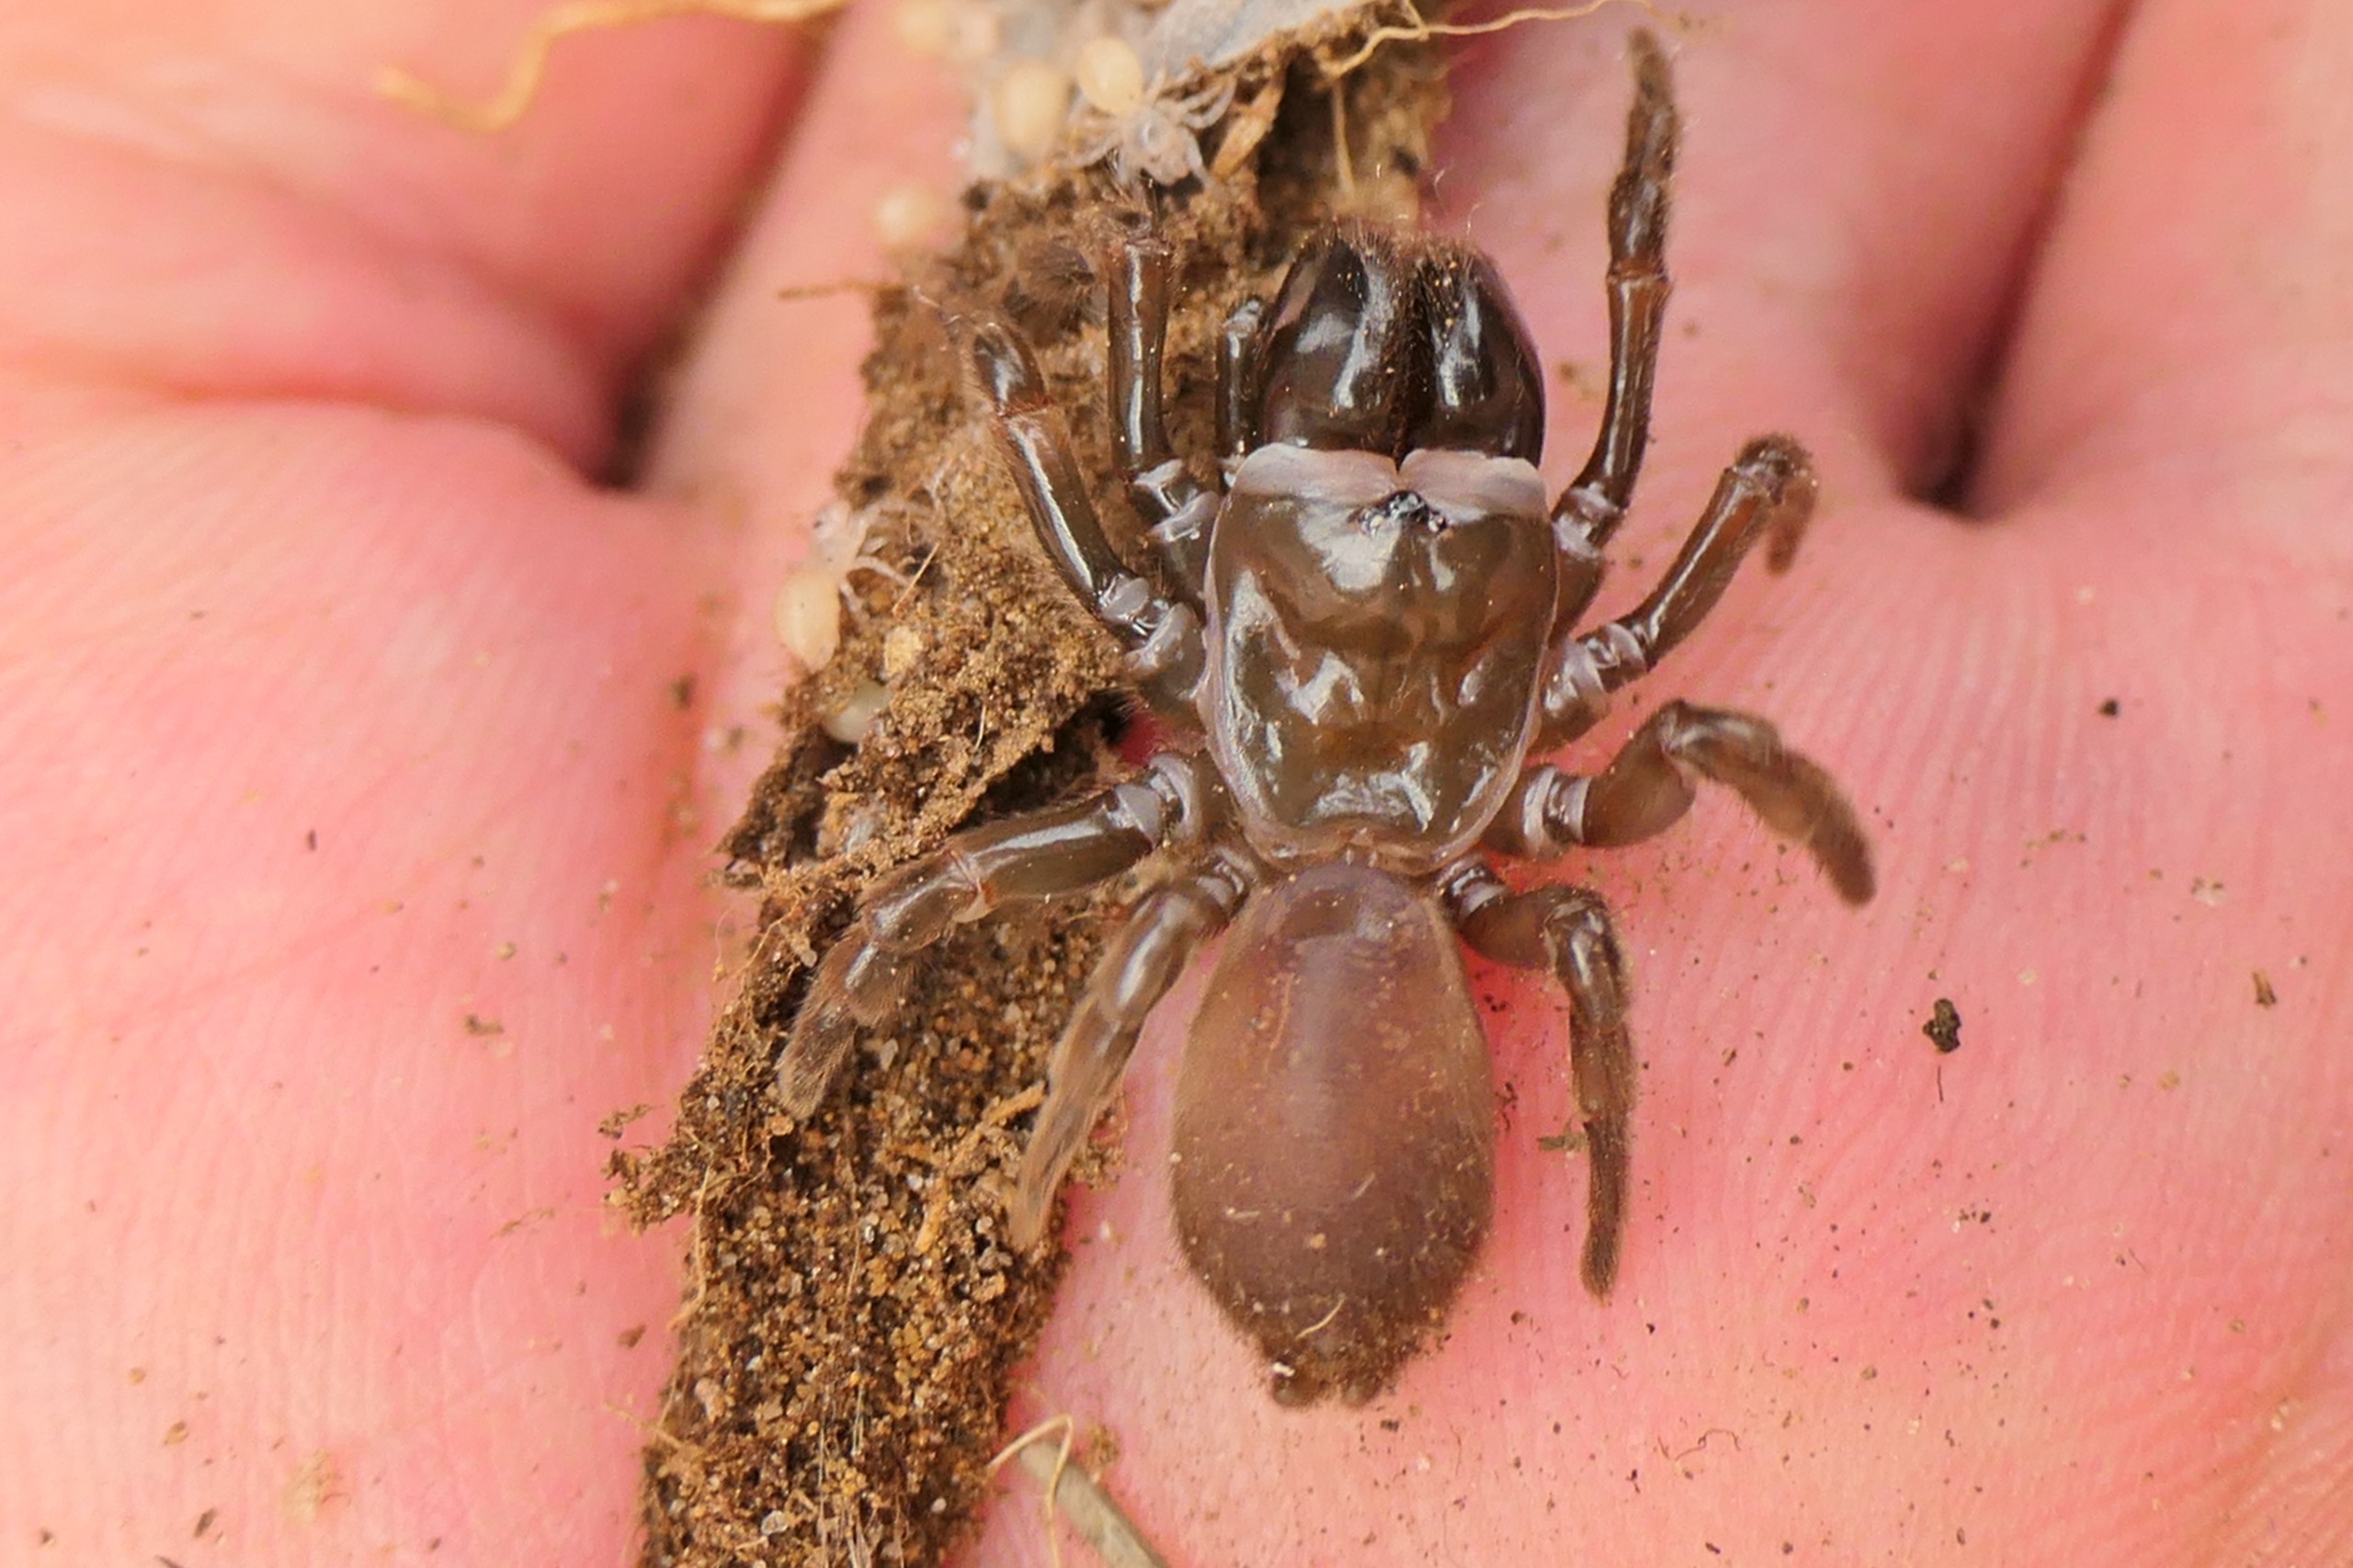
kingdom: Animalia
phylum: Arthropoda
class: Arachnida
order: Araneae
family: Atypidae
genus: Atypus
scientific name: Atypus affinis
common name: Nordlig fugleedderkop
